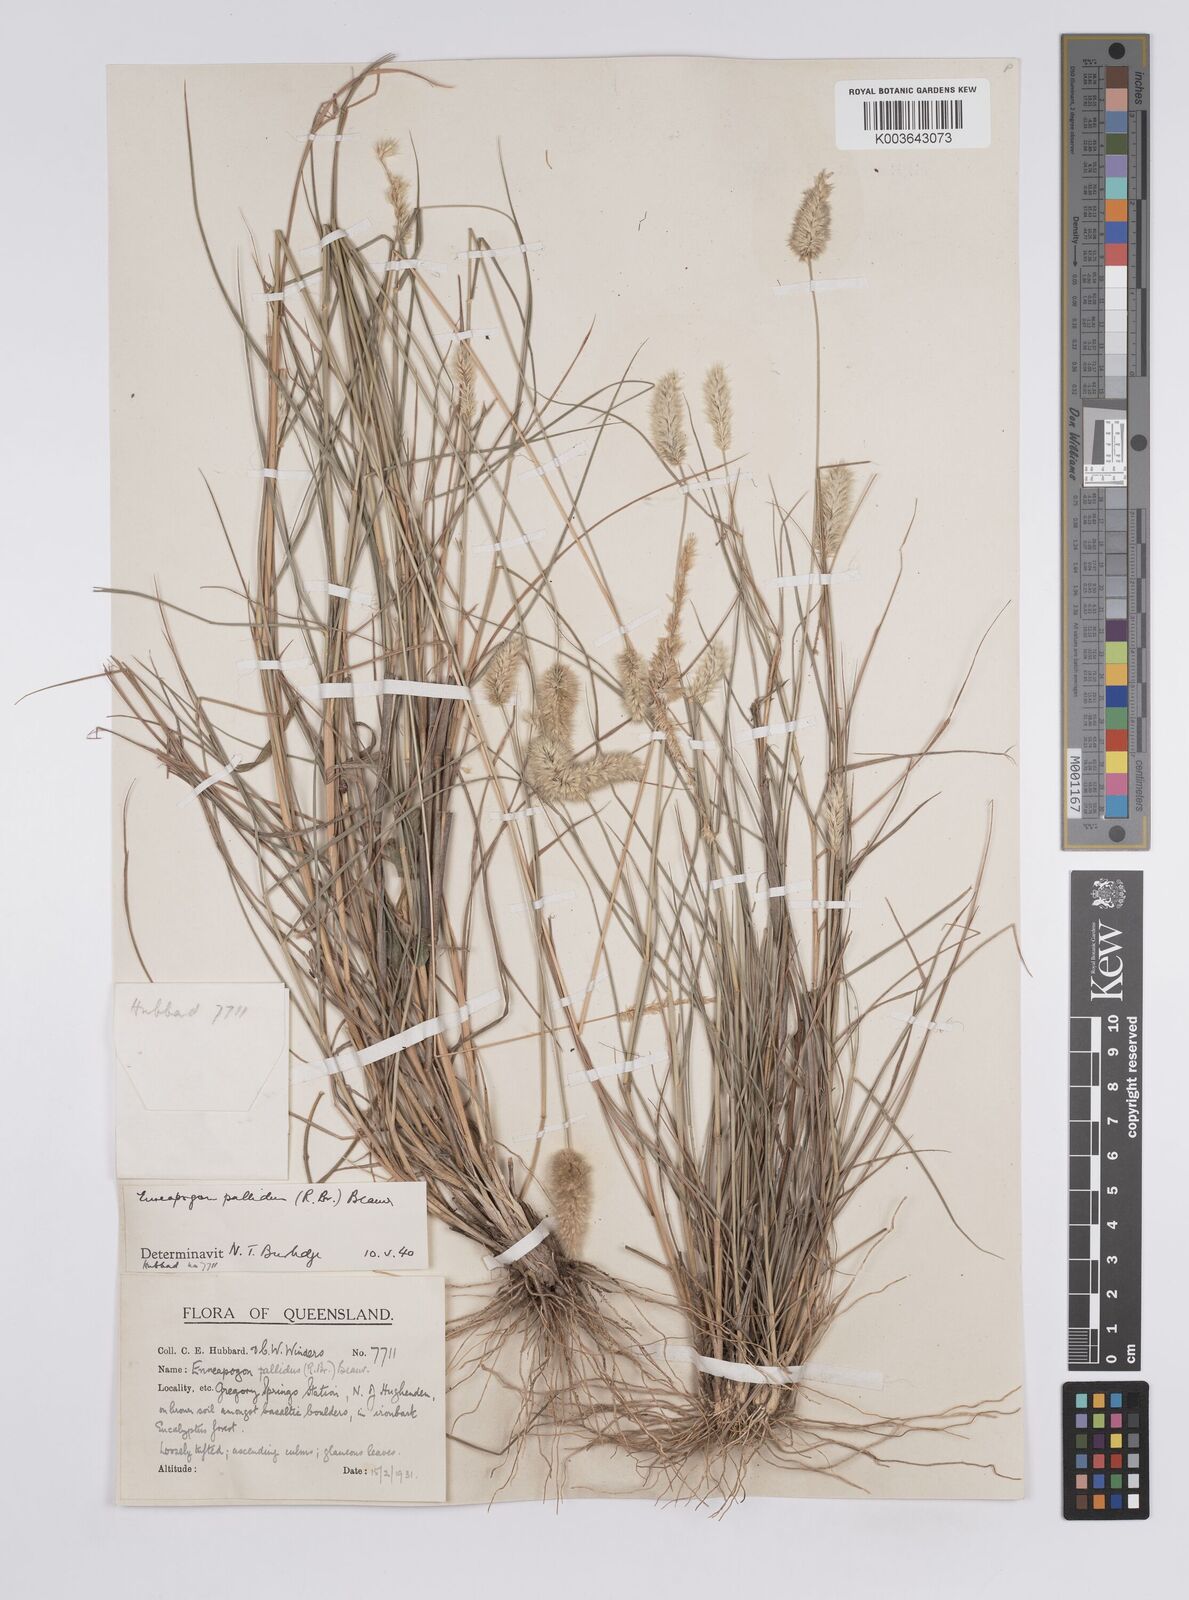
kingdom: Plantae
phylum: Tracheophyta
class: Liliopsida
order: Poales
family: Poaceae
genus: Enneapogon
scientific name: Enneapogon pallidus
